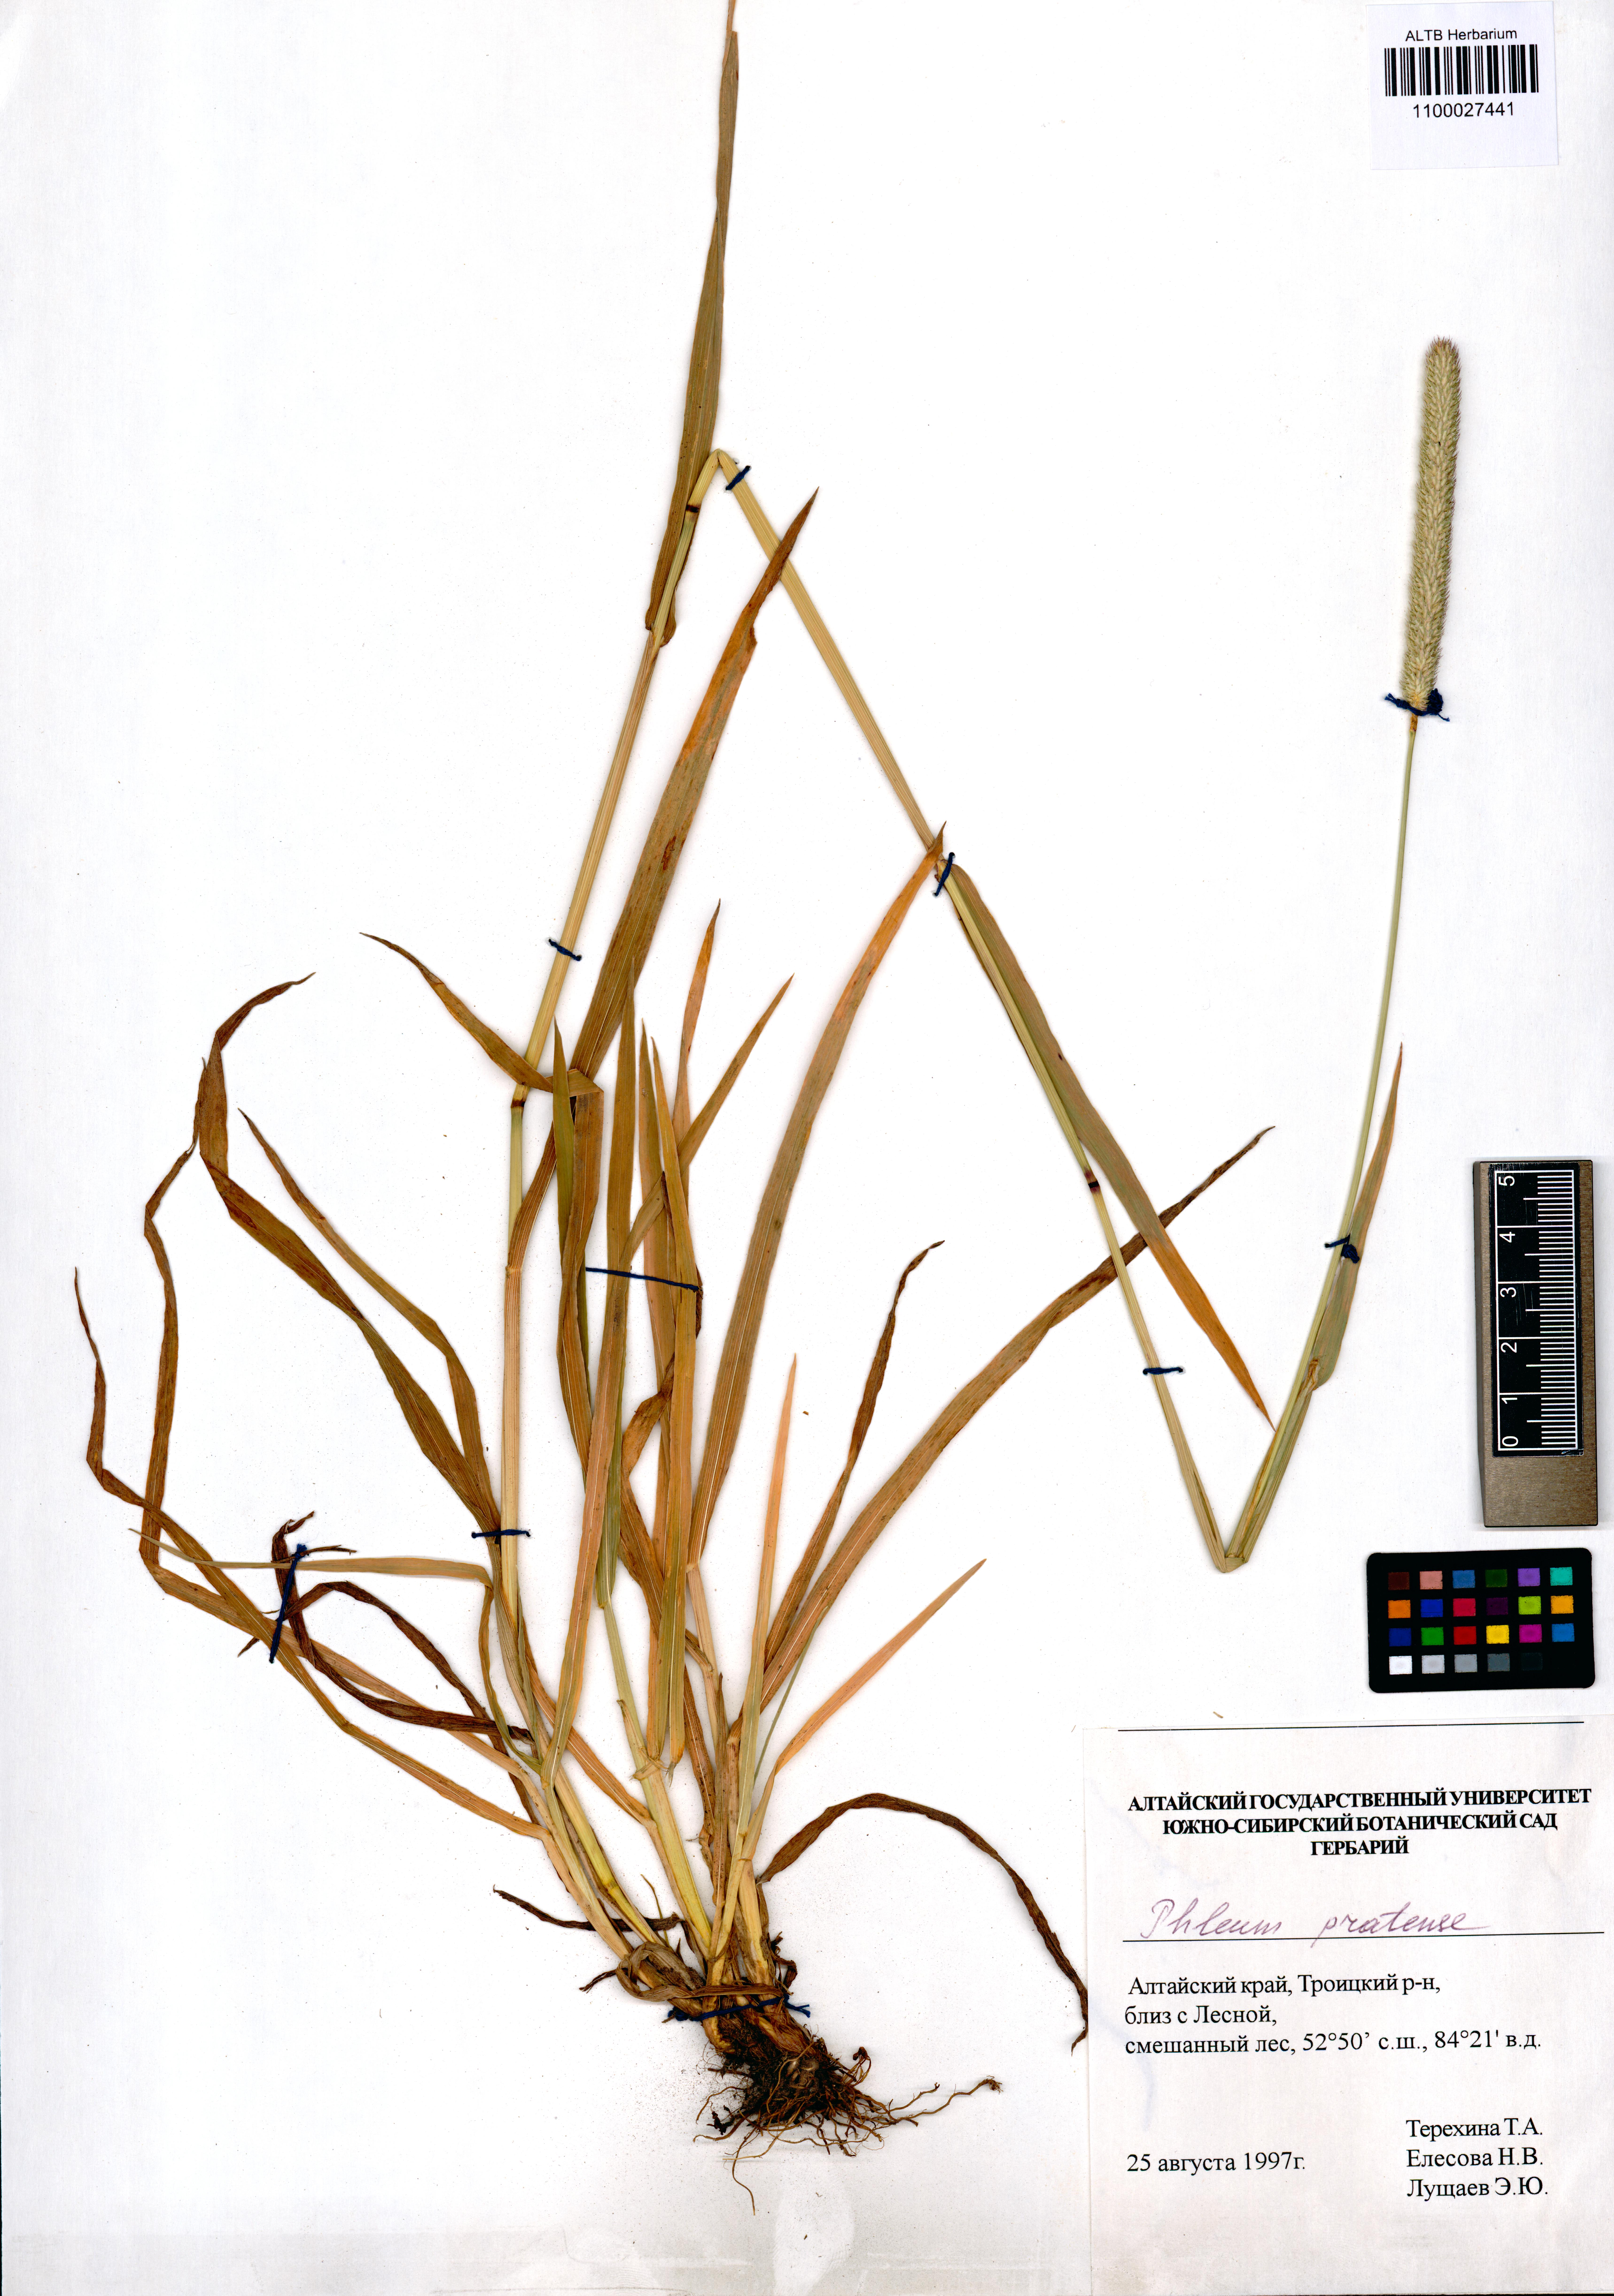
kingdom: Plantae
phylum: Tracheophyta
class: Liliopsida
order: Poales
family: Poaceae
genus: Phleum
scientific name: Phleum pratense
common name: Timothy grass
